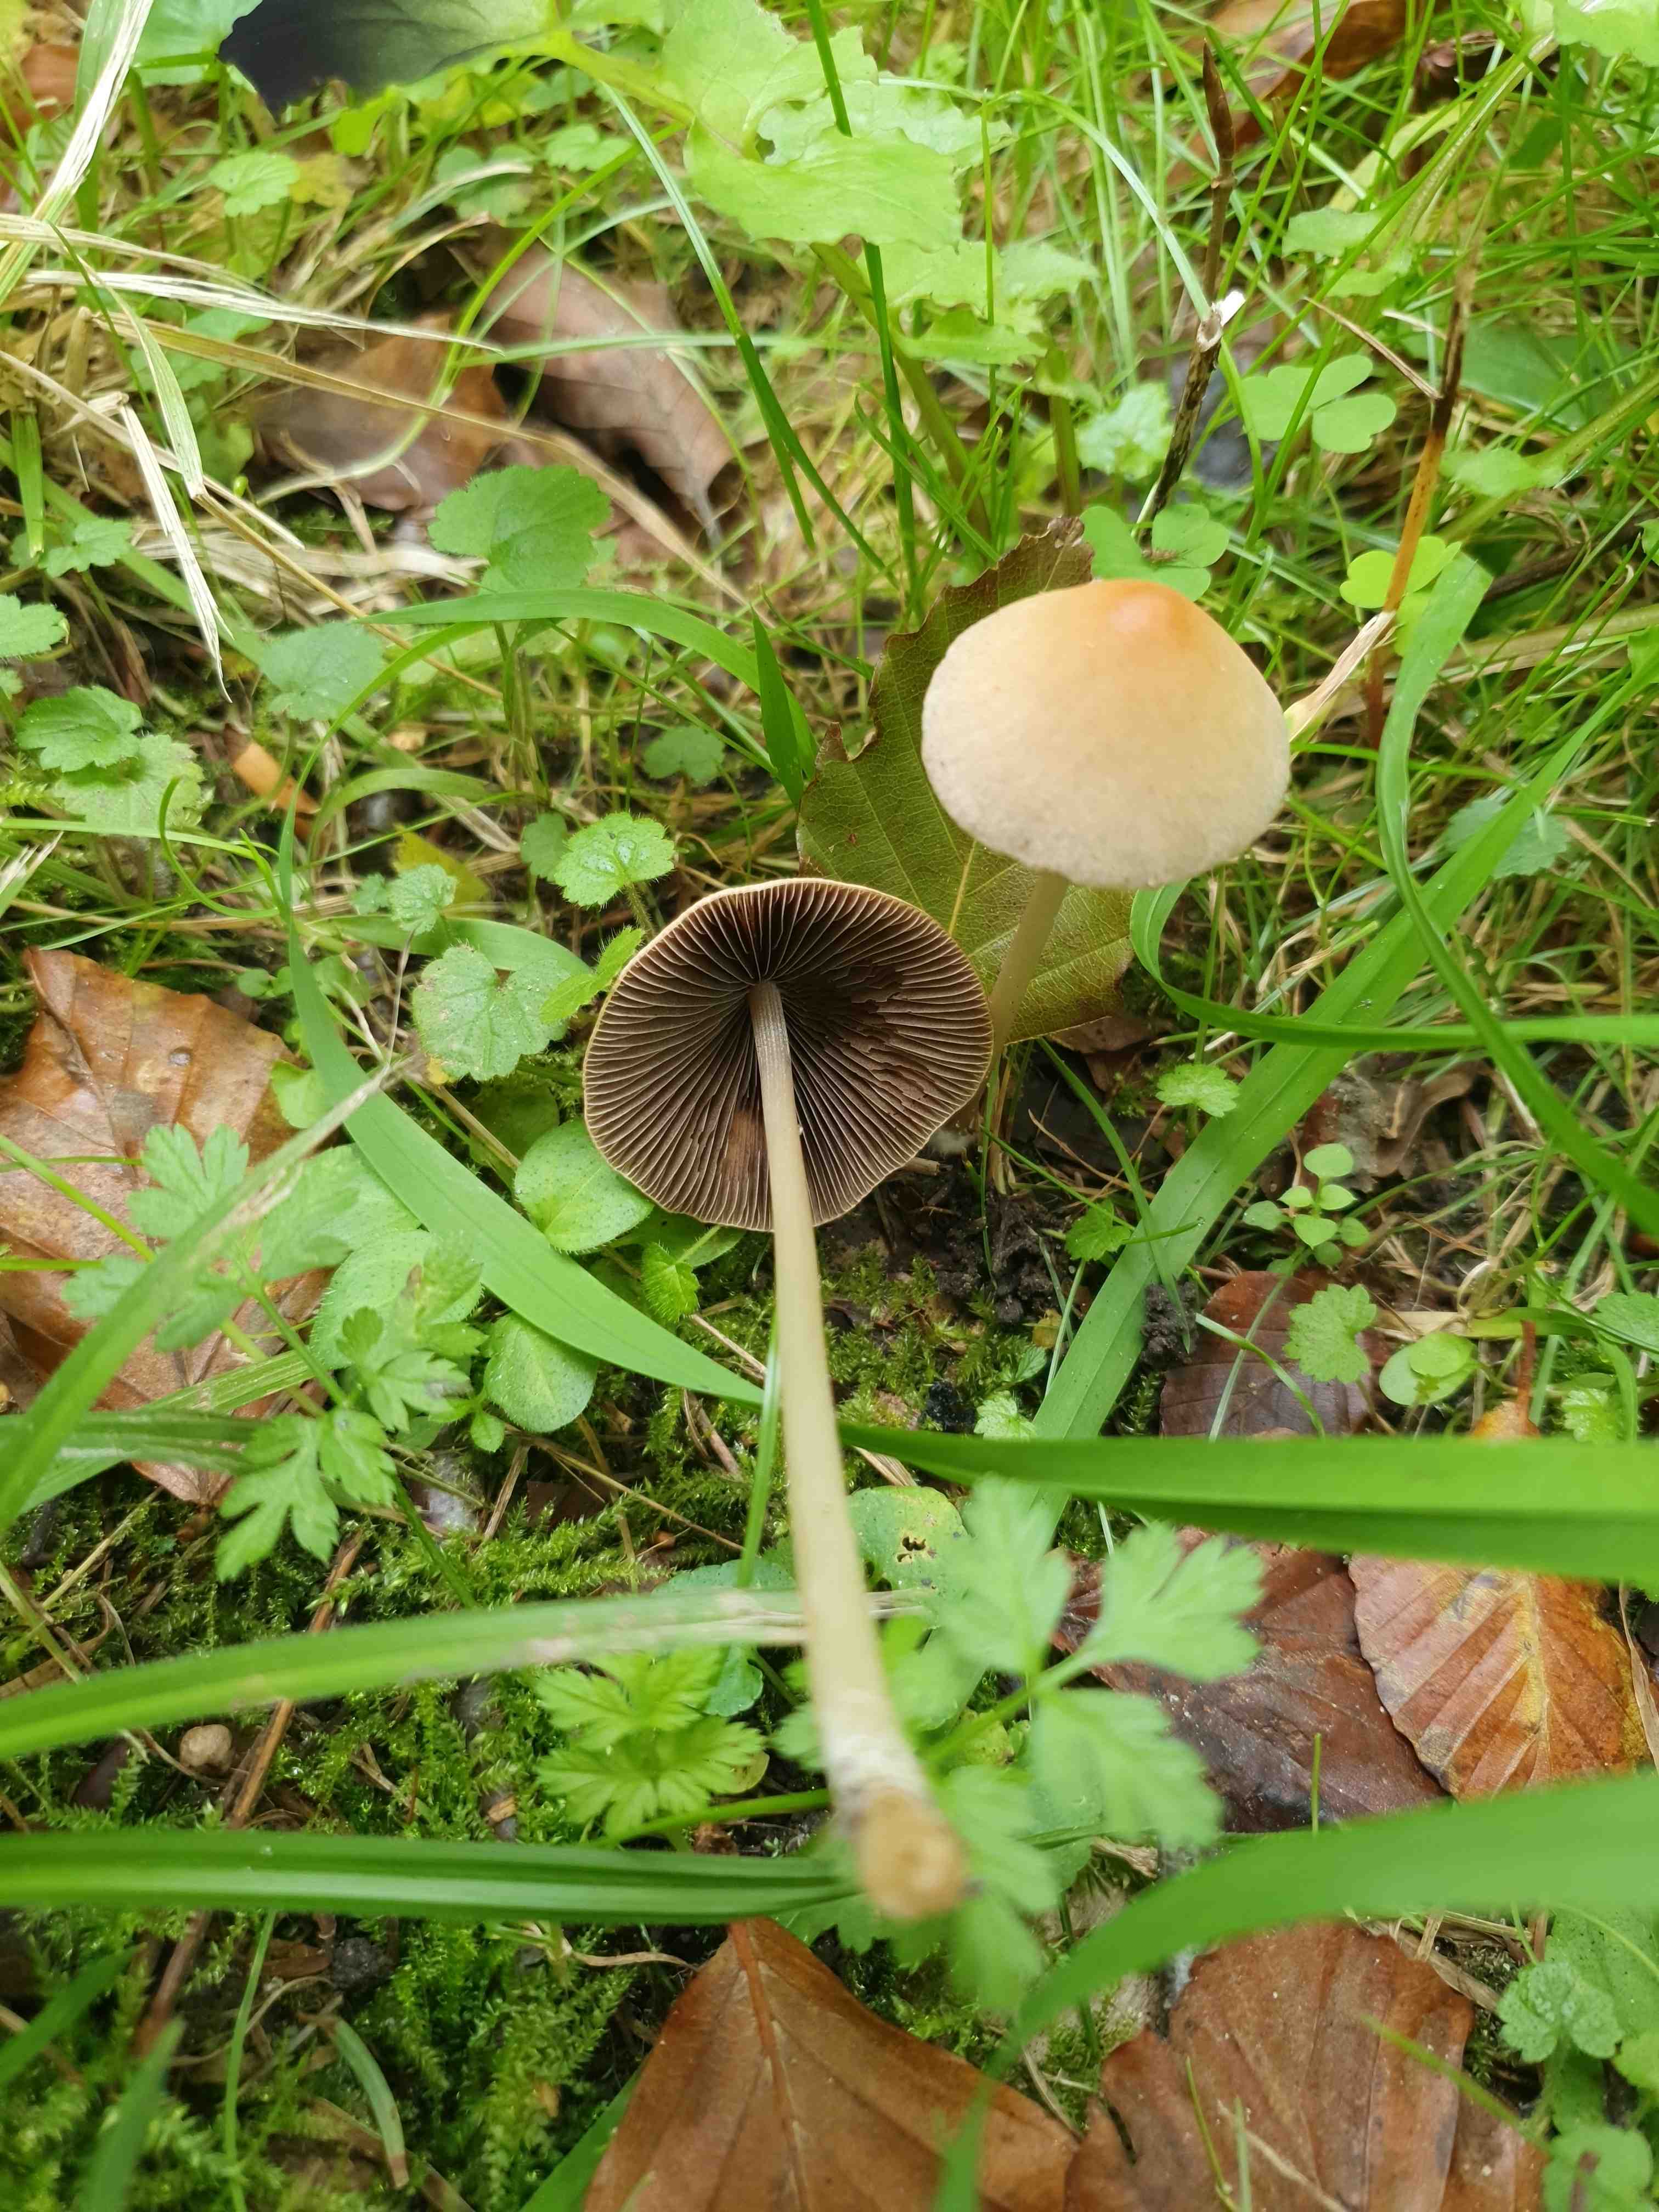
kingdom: Fungi
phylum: Basidiomycota
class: Agaricomycetes
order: Agaricales
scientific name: Agaricales
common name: champignonordenen
